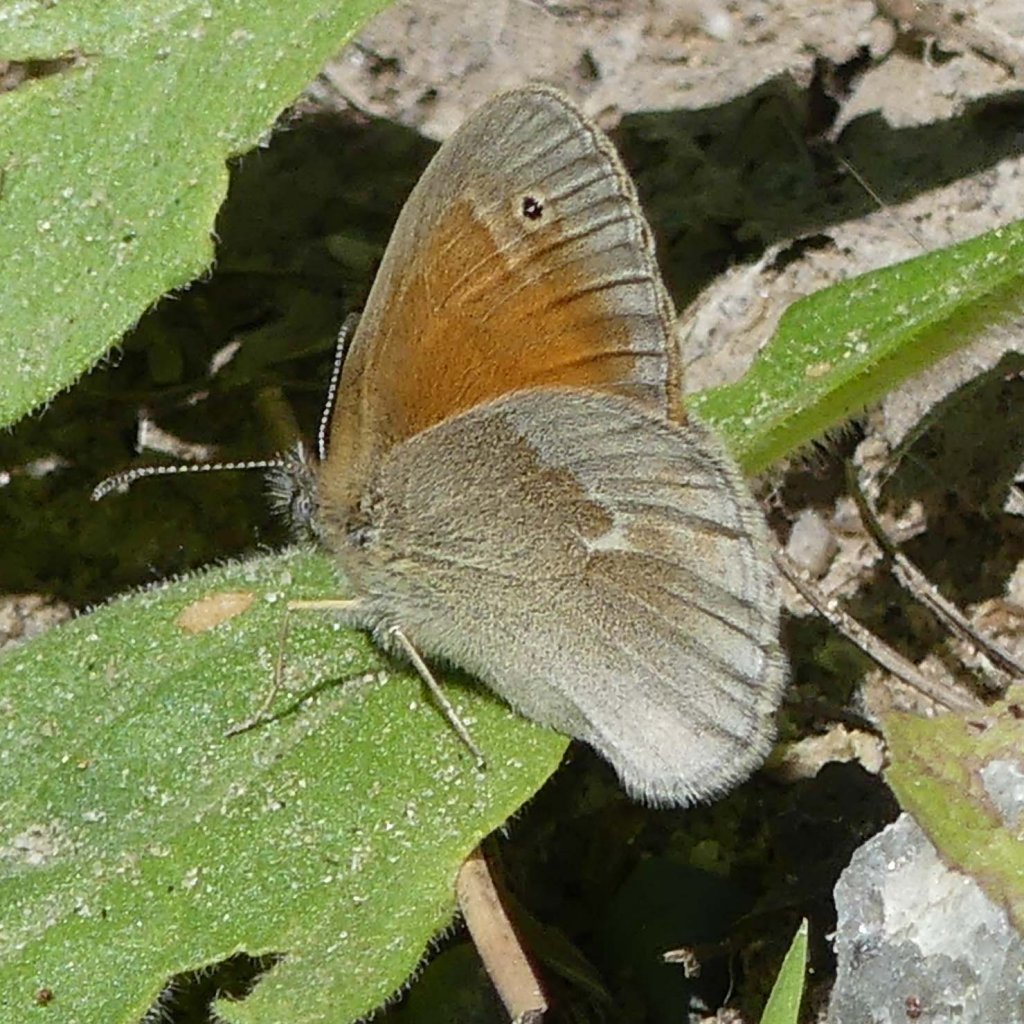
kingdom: Animalia
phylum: Arthropoda
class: Insecta
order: Lepidoptera
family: Nymphalidae
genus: Coenonympha
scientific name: Coenonympha tullia
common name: Large Heath
